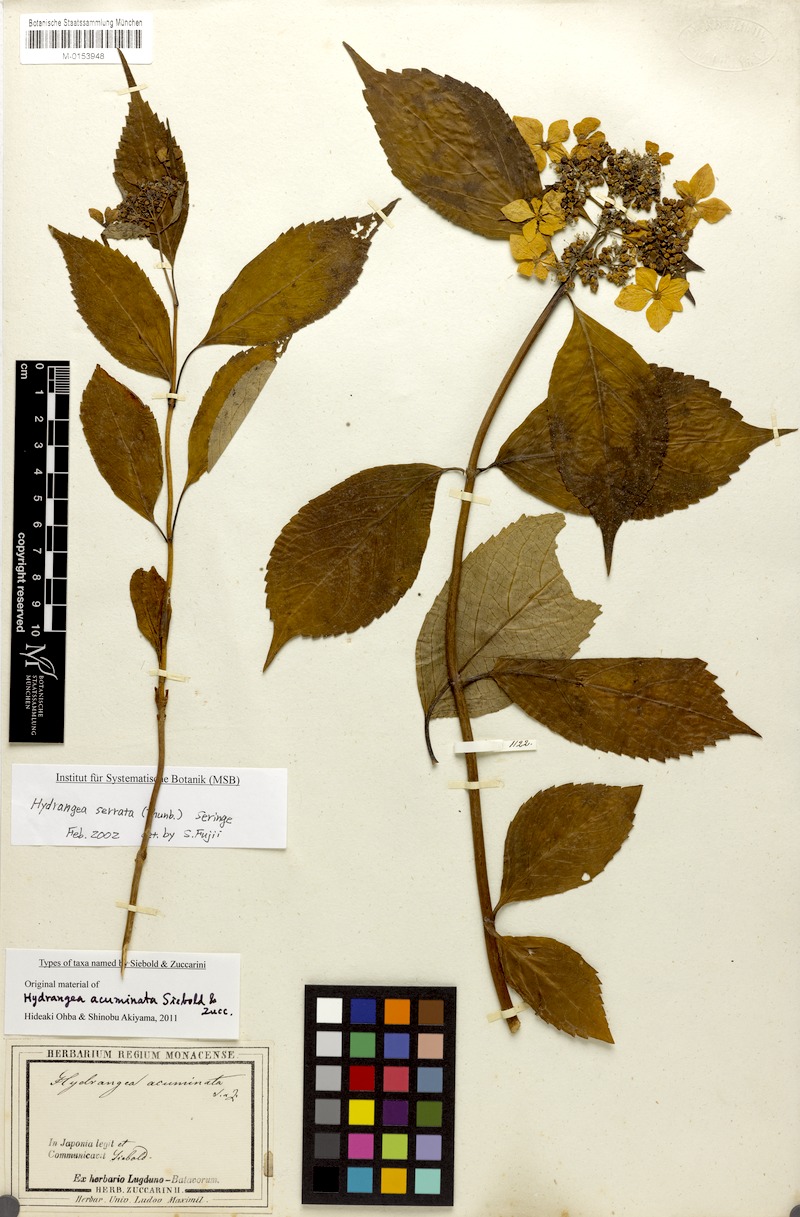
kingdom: Plantae
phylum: Tracheophyta
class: Magnoliopsida
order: Cornales
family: Hydrangeaceae
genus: Hydrangea
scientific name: Hydrangea serrata
